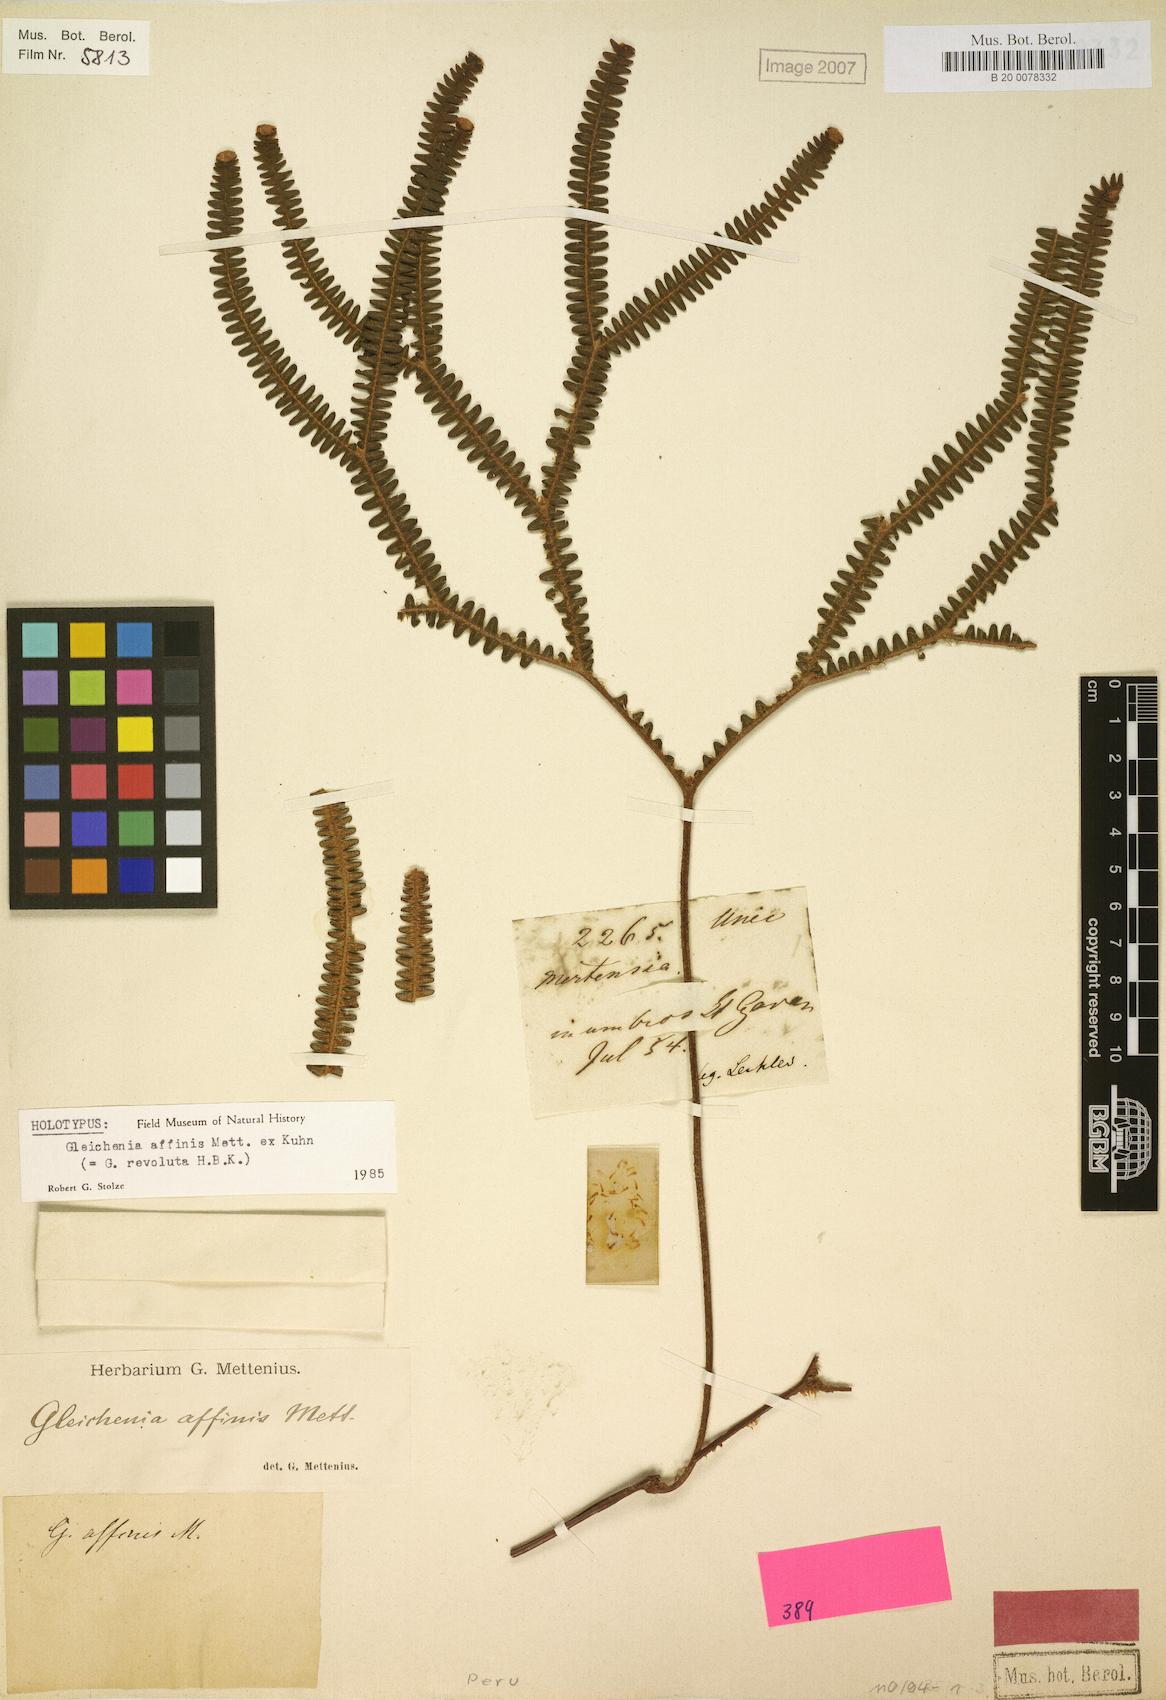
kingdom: Plantae
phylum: Tracheophyta
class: Polypodiopsida
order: Gleicheniales
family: Gleicheniaceae
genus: Sticherus
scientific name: Sticherus revolutus
